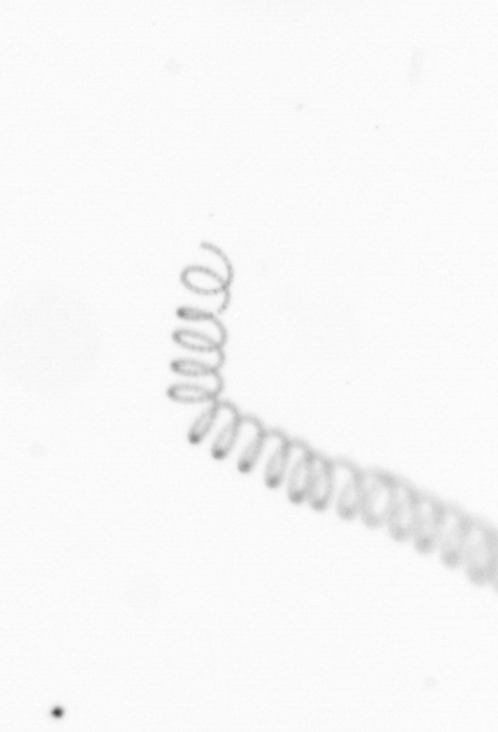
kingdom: Chromista
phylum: Ochrophyta
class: Bacillariophyceae
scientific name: Bacillariophyceae
